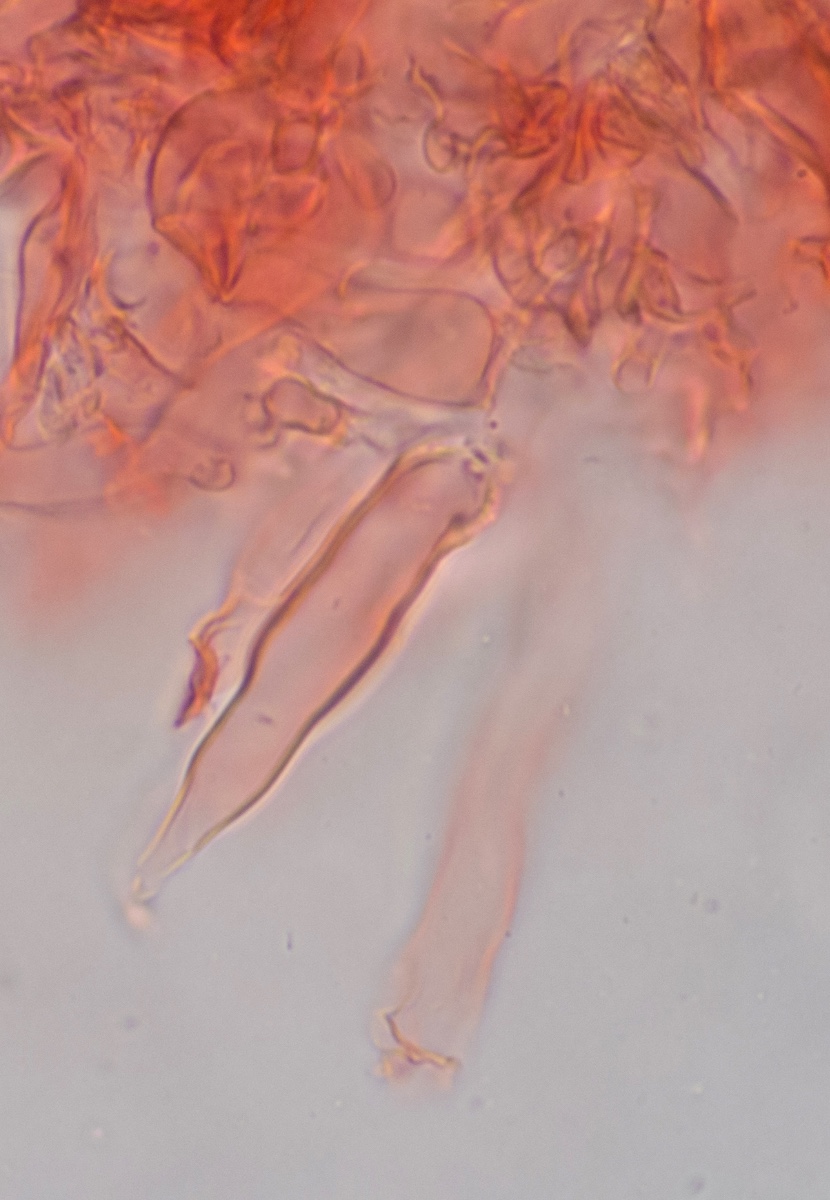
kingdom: Fungi
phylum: Basidiomycota
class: Agaricomycetes
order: Russulales
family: Peniophoraceae
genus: Peniophora
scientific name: Peniophora lycii
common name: grynet voksskind
